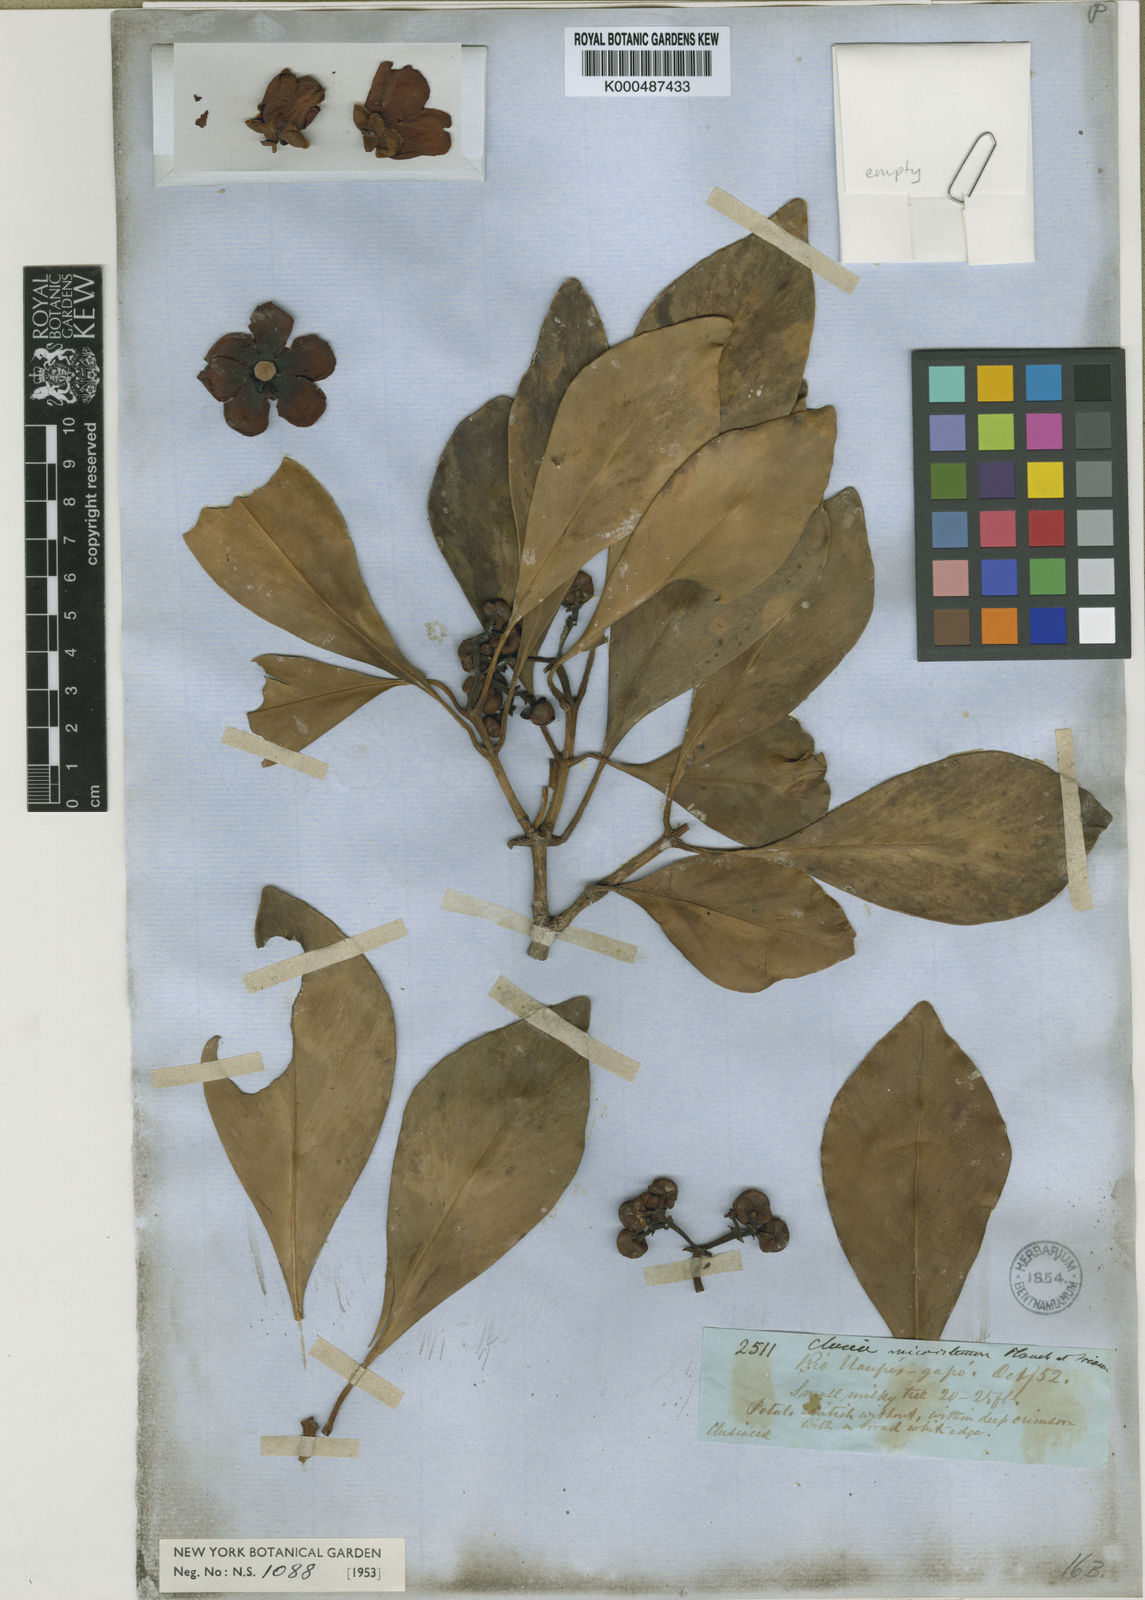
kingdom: Plantae
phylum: Tracheophyta
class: Magnoliopsida
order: Malpighiales
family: Clusiaceae
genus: Clusia
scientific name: Clusia microstemon
